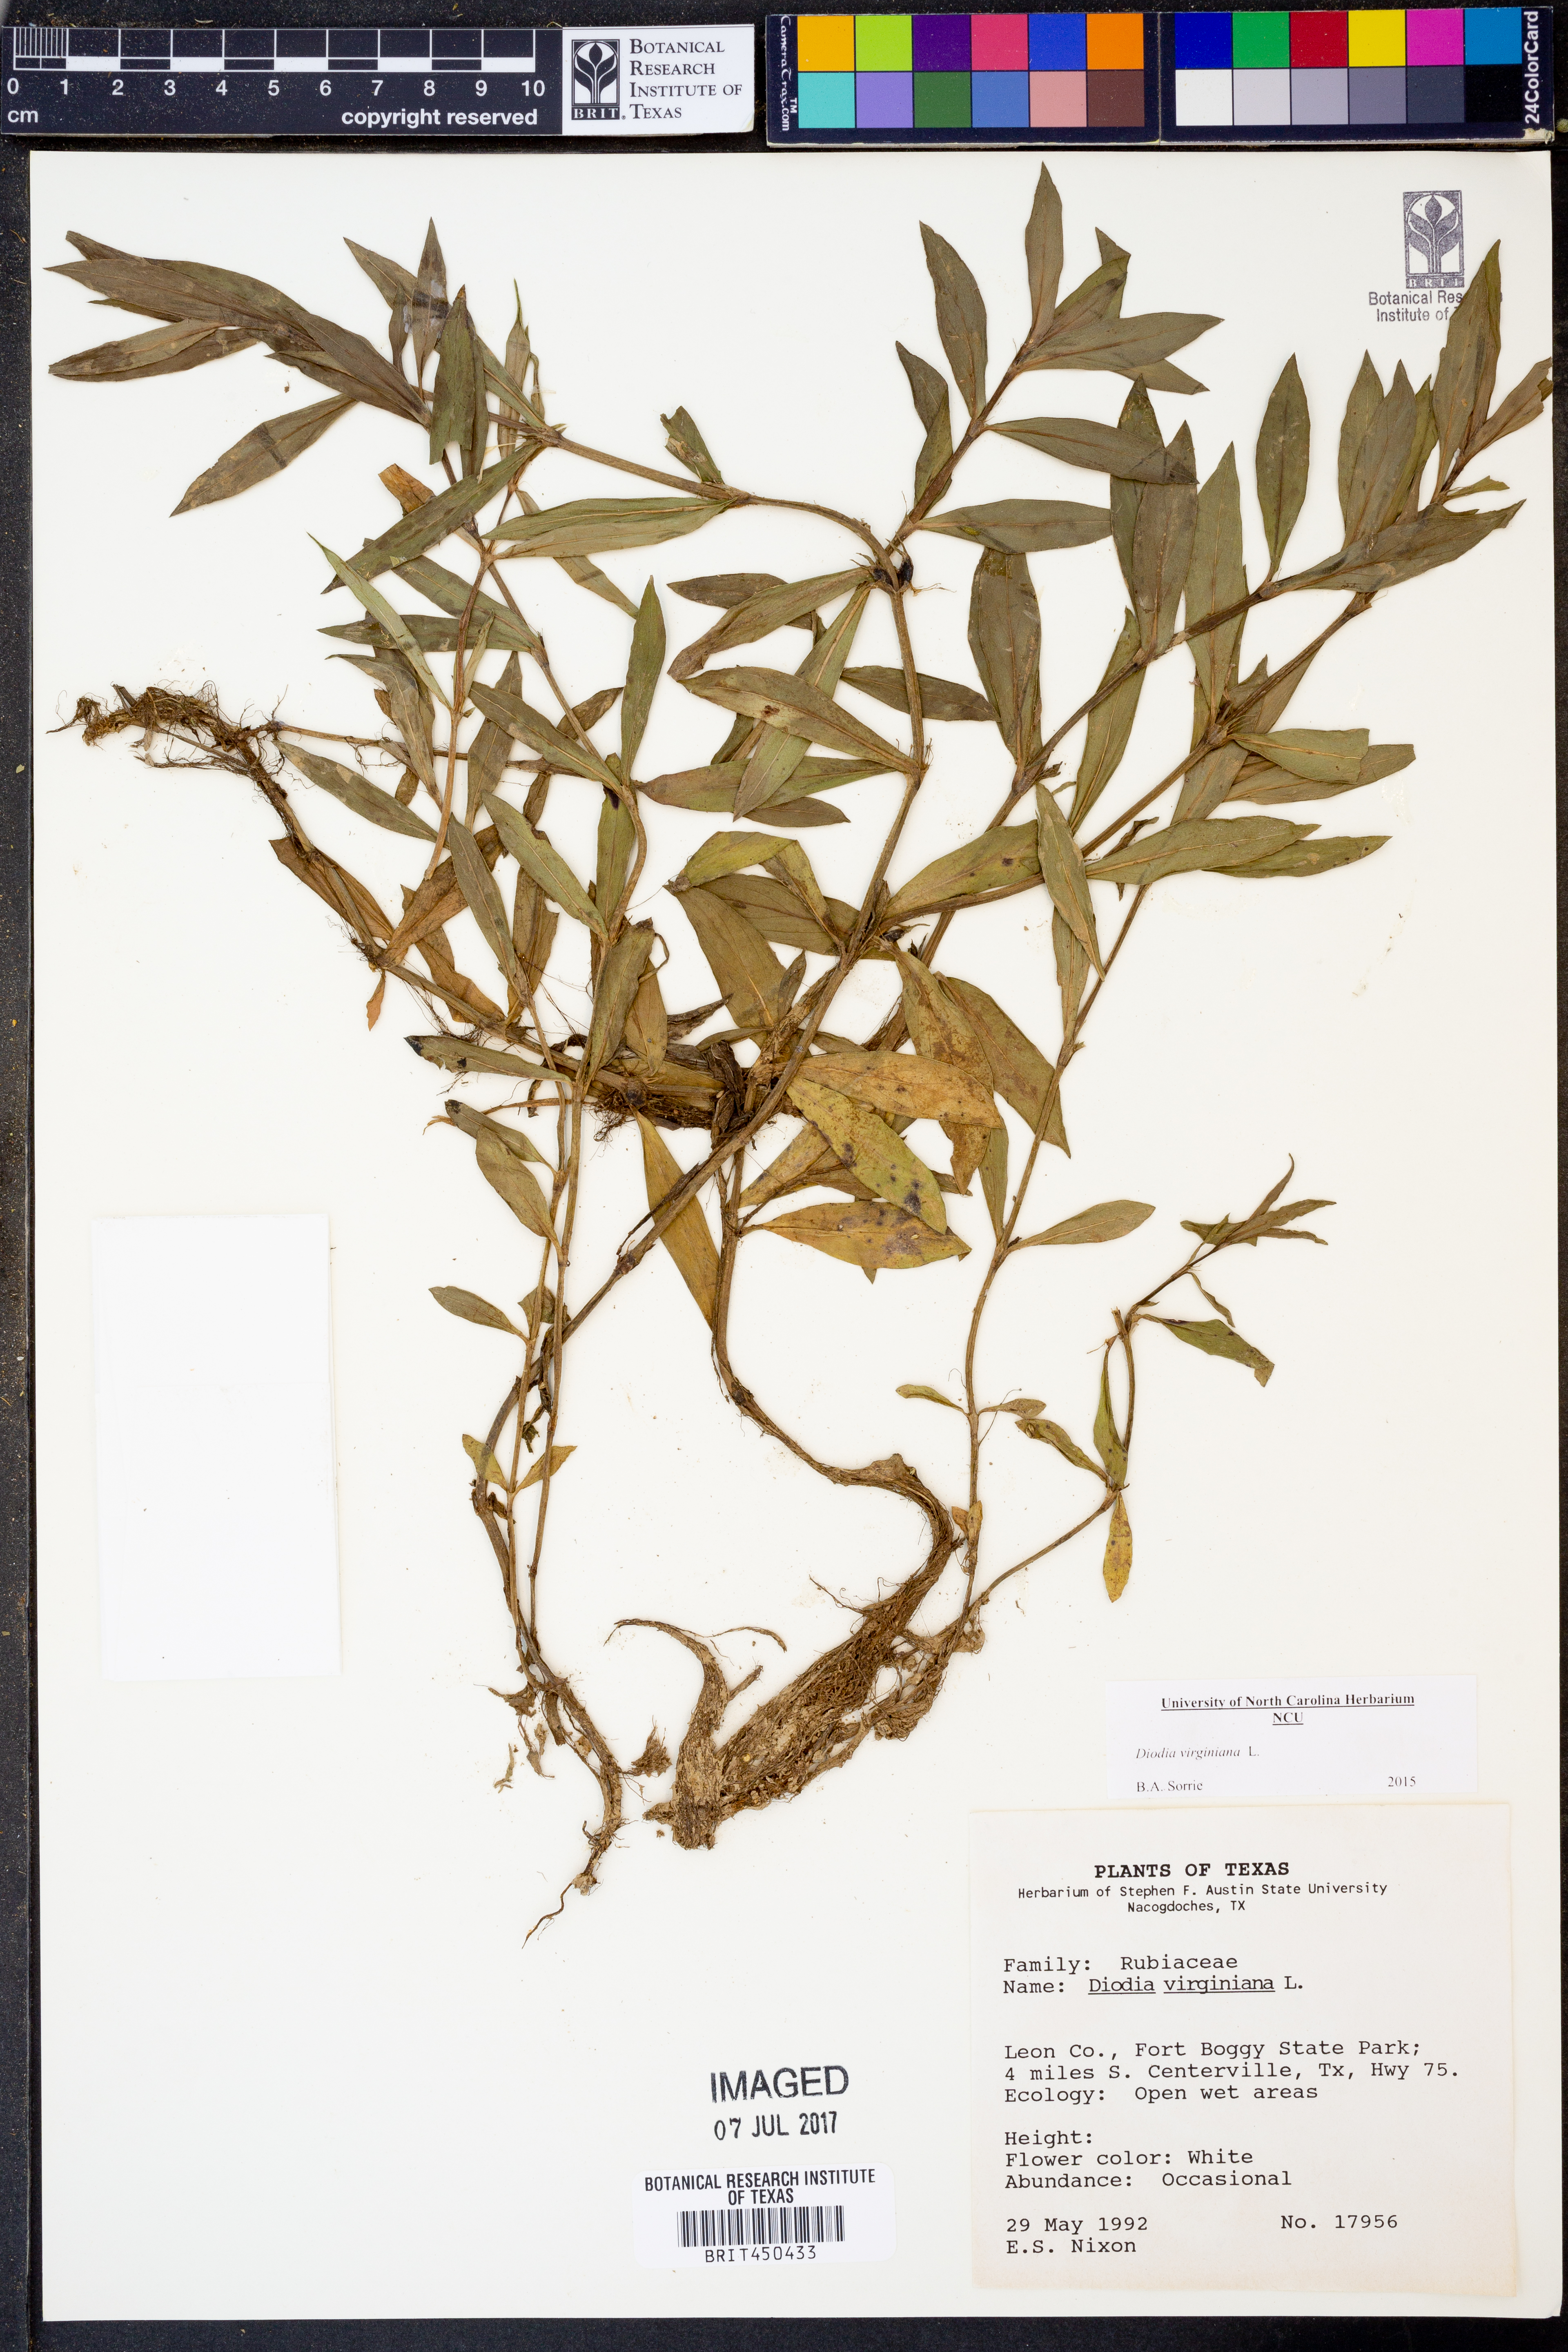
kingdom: Plantae
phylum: Tracheophyta
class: Magnoliopsida
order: Gentianales
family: Rubiaceae
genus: Diodia
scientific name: Diodia virginiana
